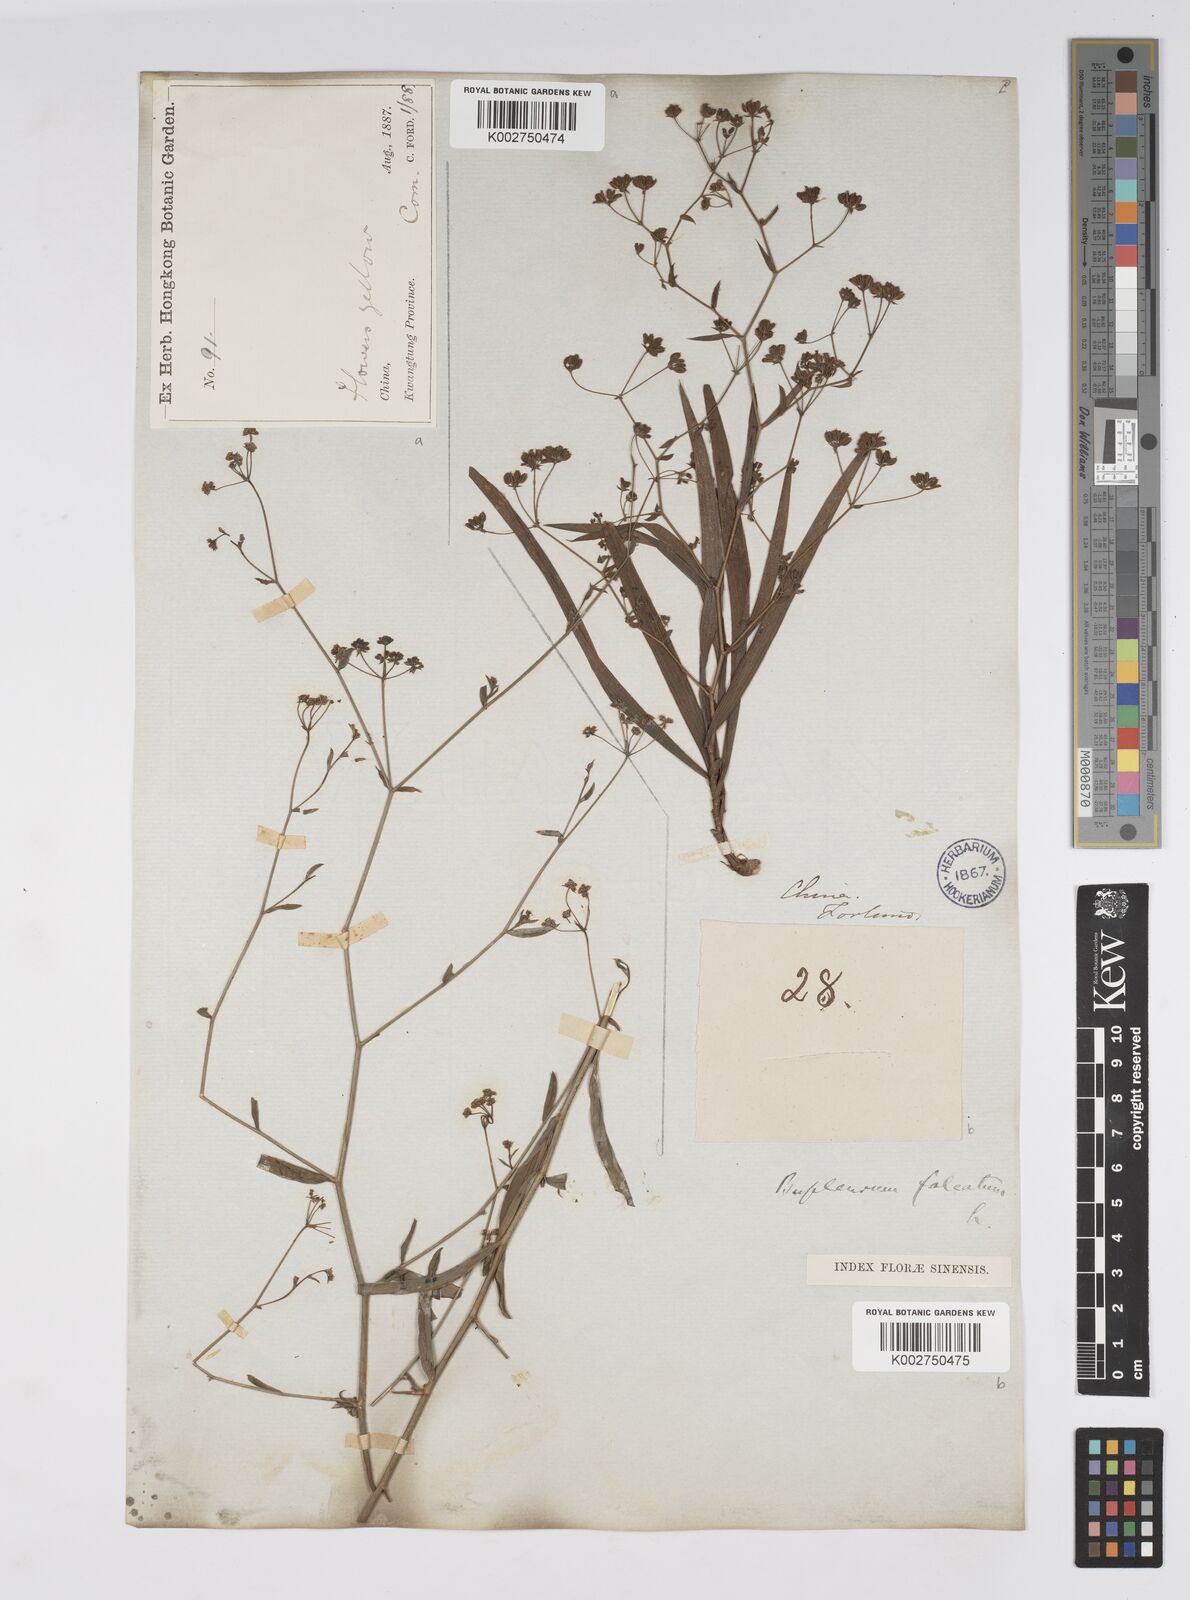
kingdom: Plantae
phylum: Tracheophyta
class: Magnoliopsida
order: Apiales
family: Apiaceae
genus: Bupleurum
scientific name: Bupleurum krylovianum
